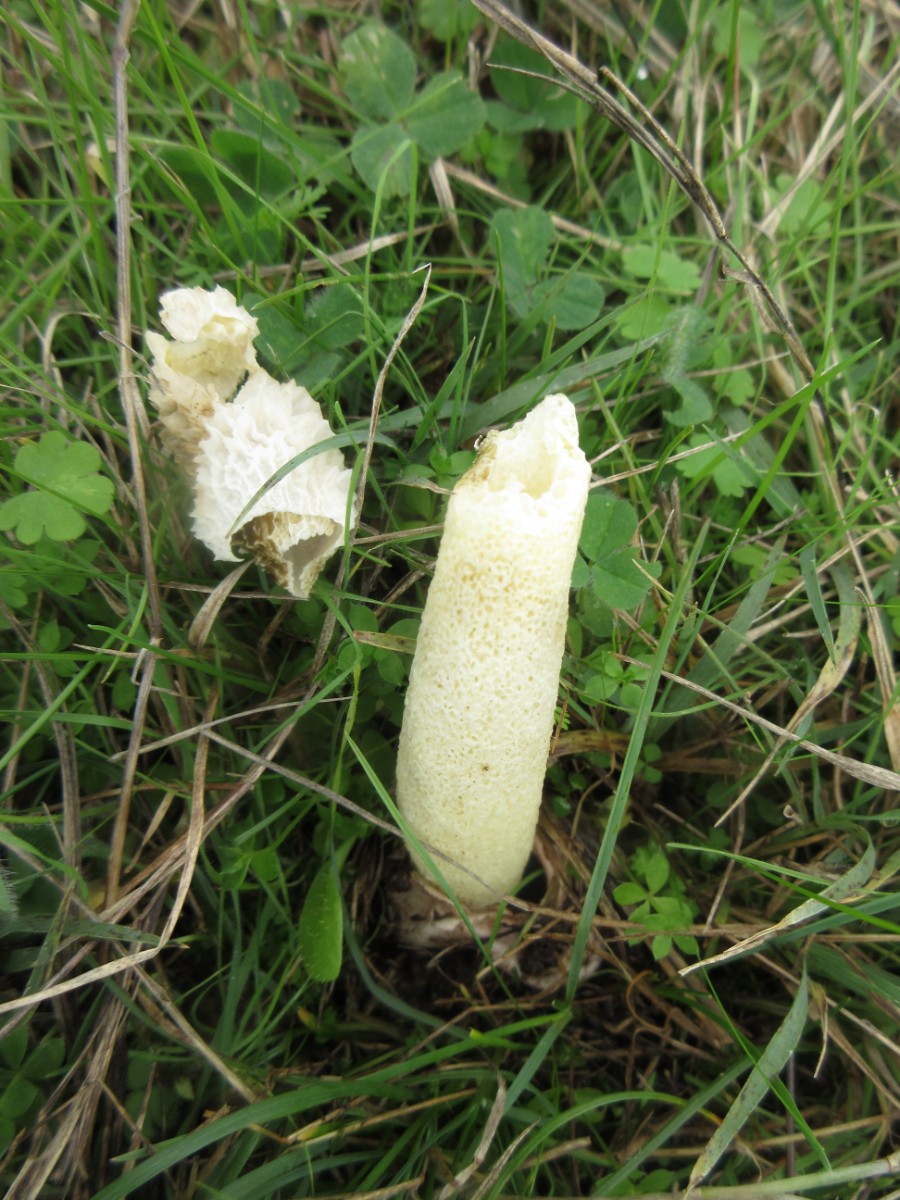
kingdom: Fungi
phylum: Basidiomycota
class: Agaricomycetes
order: Phallales
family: Phallaceae
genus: Phallus
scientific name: Phallus hadriani
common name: sand-stinksvamp
